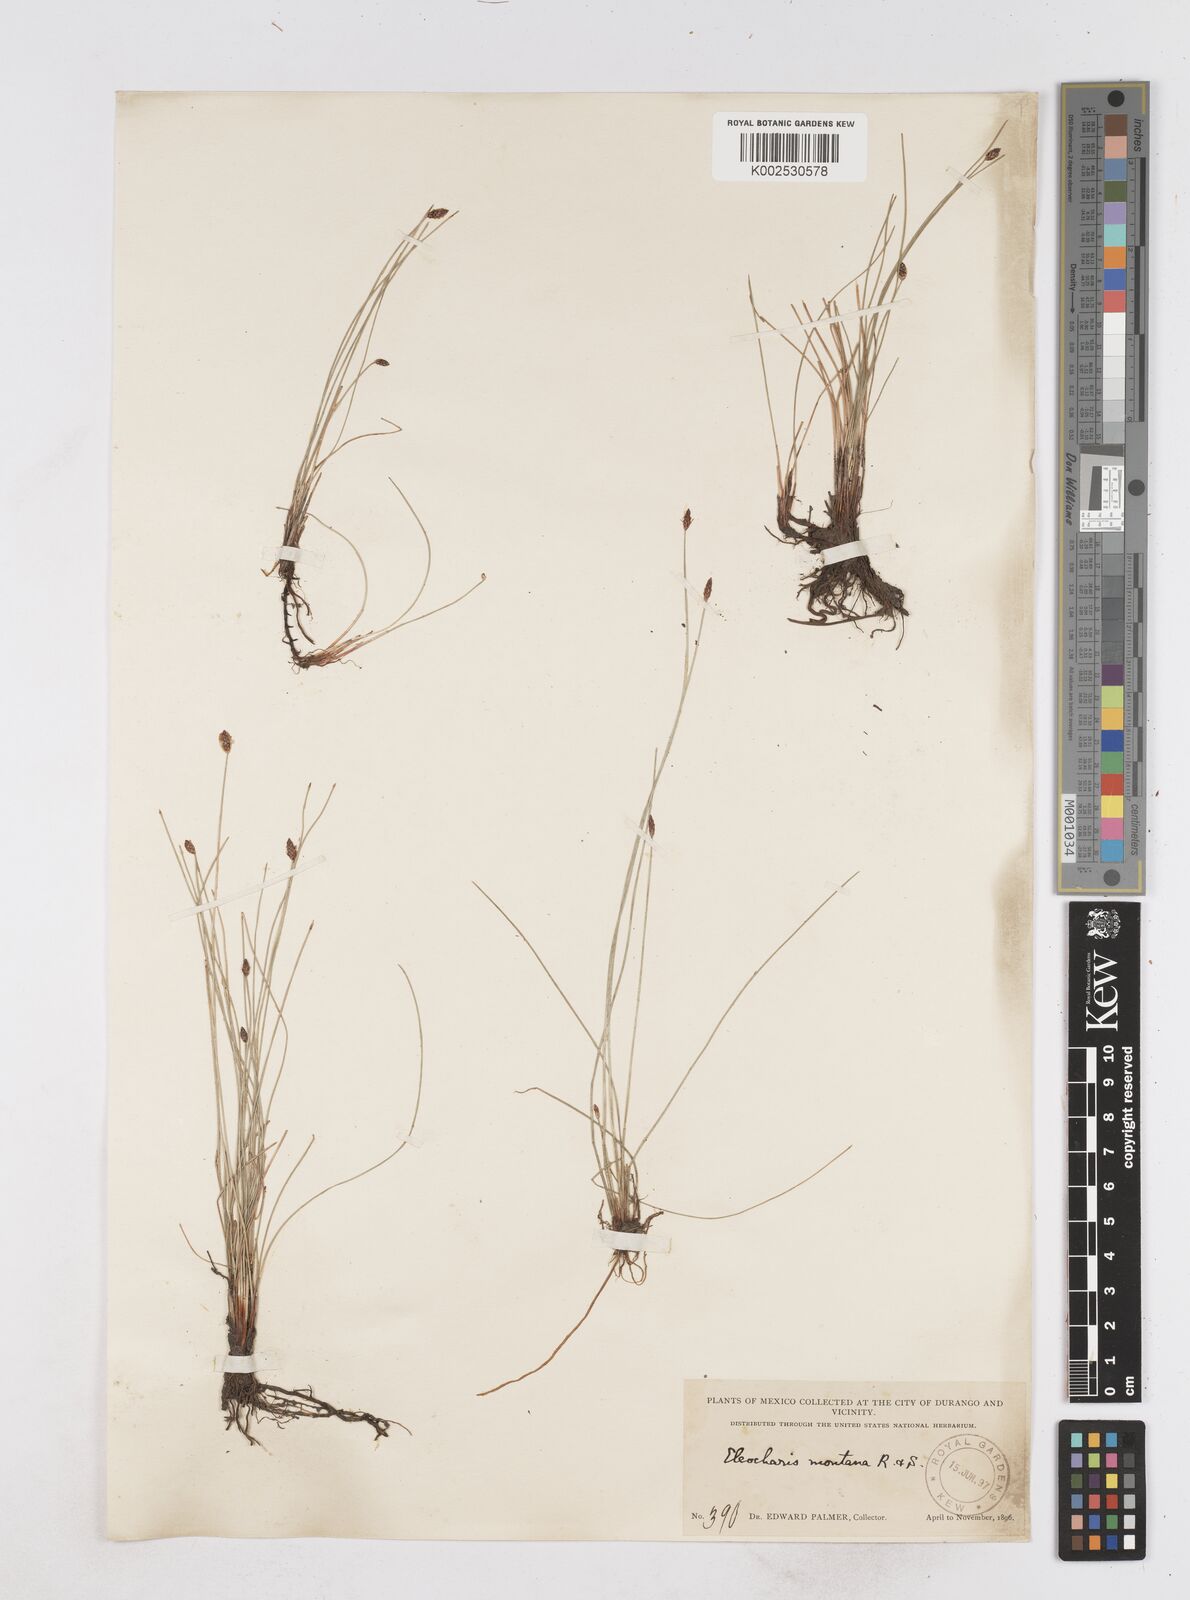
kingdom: Plantae
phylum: Tracheophyta
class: Liliopsida
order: Poales
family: Cyperaceae
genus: Eleocharis
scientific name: Eleocharis montana
